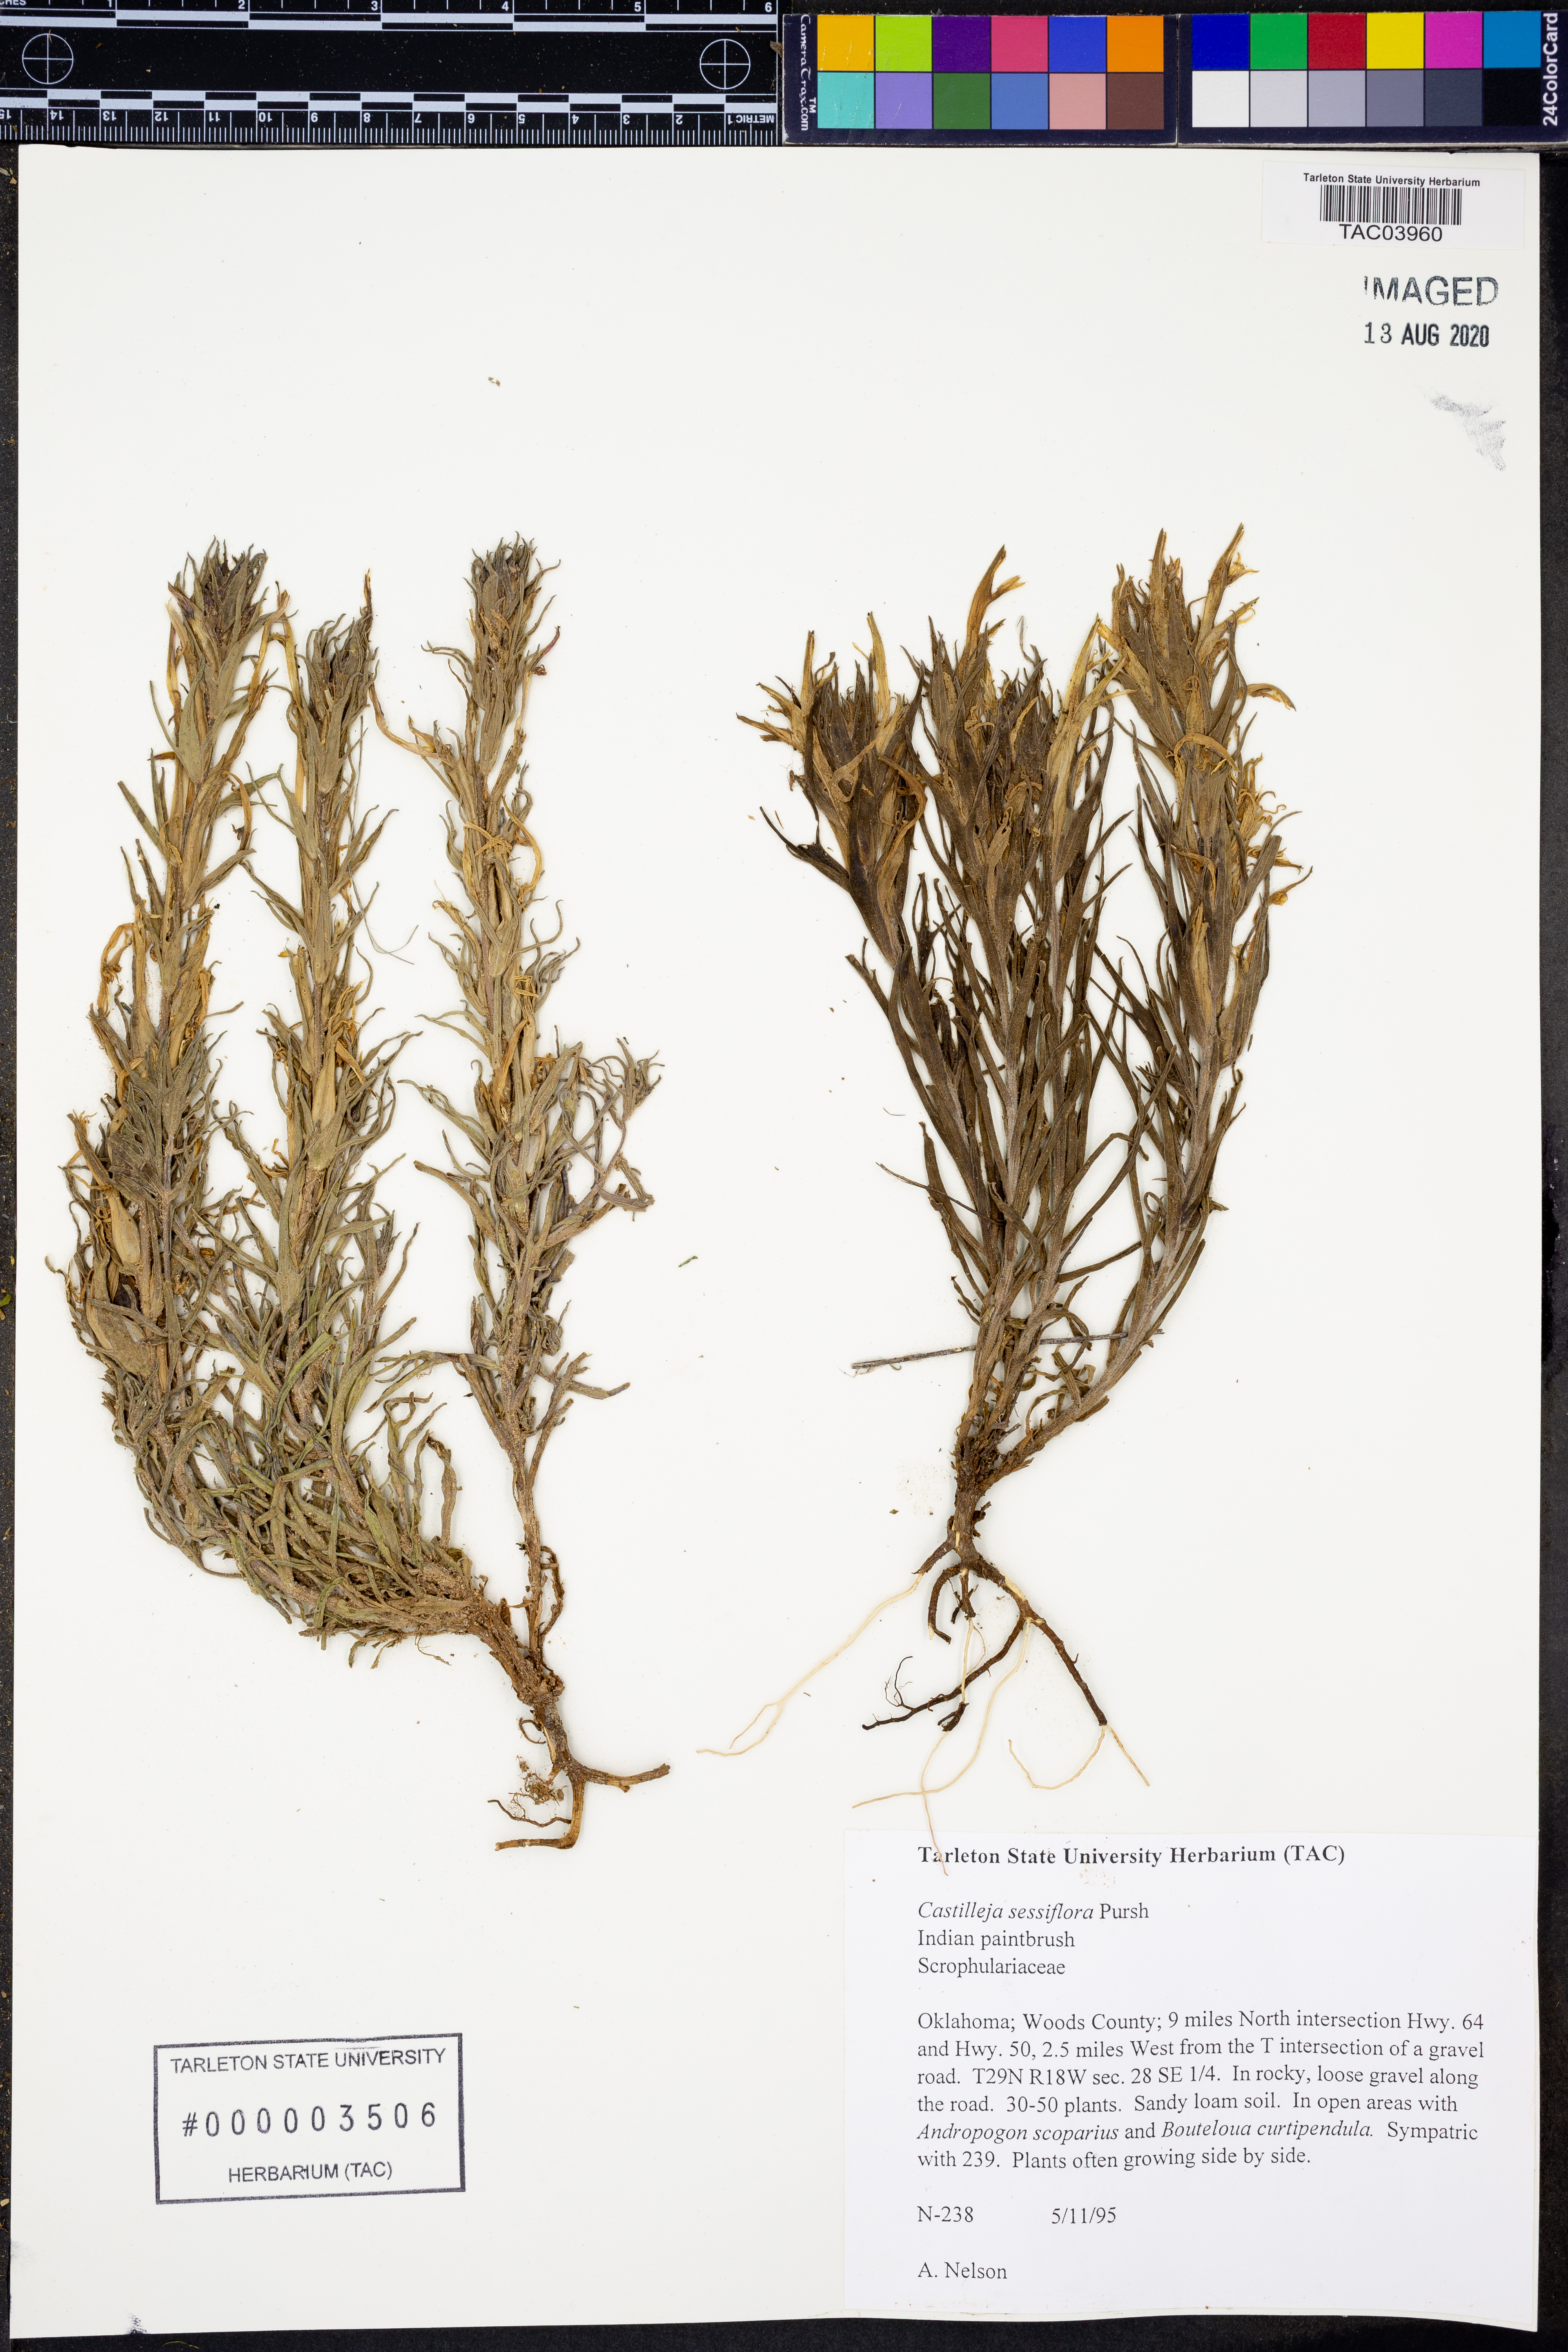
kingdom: Plantae
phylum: Tracheophyta
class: Magnoliopsida
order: Lamiales
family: Orobanchaceae
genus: Castilleja
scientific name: Castilleja sessiliflora
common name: Downy paintbrush
